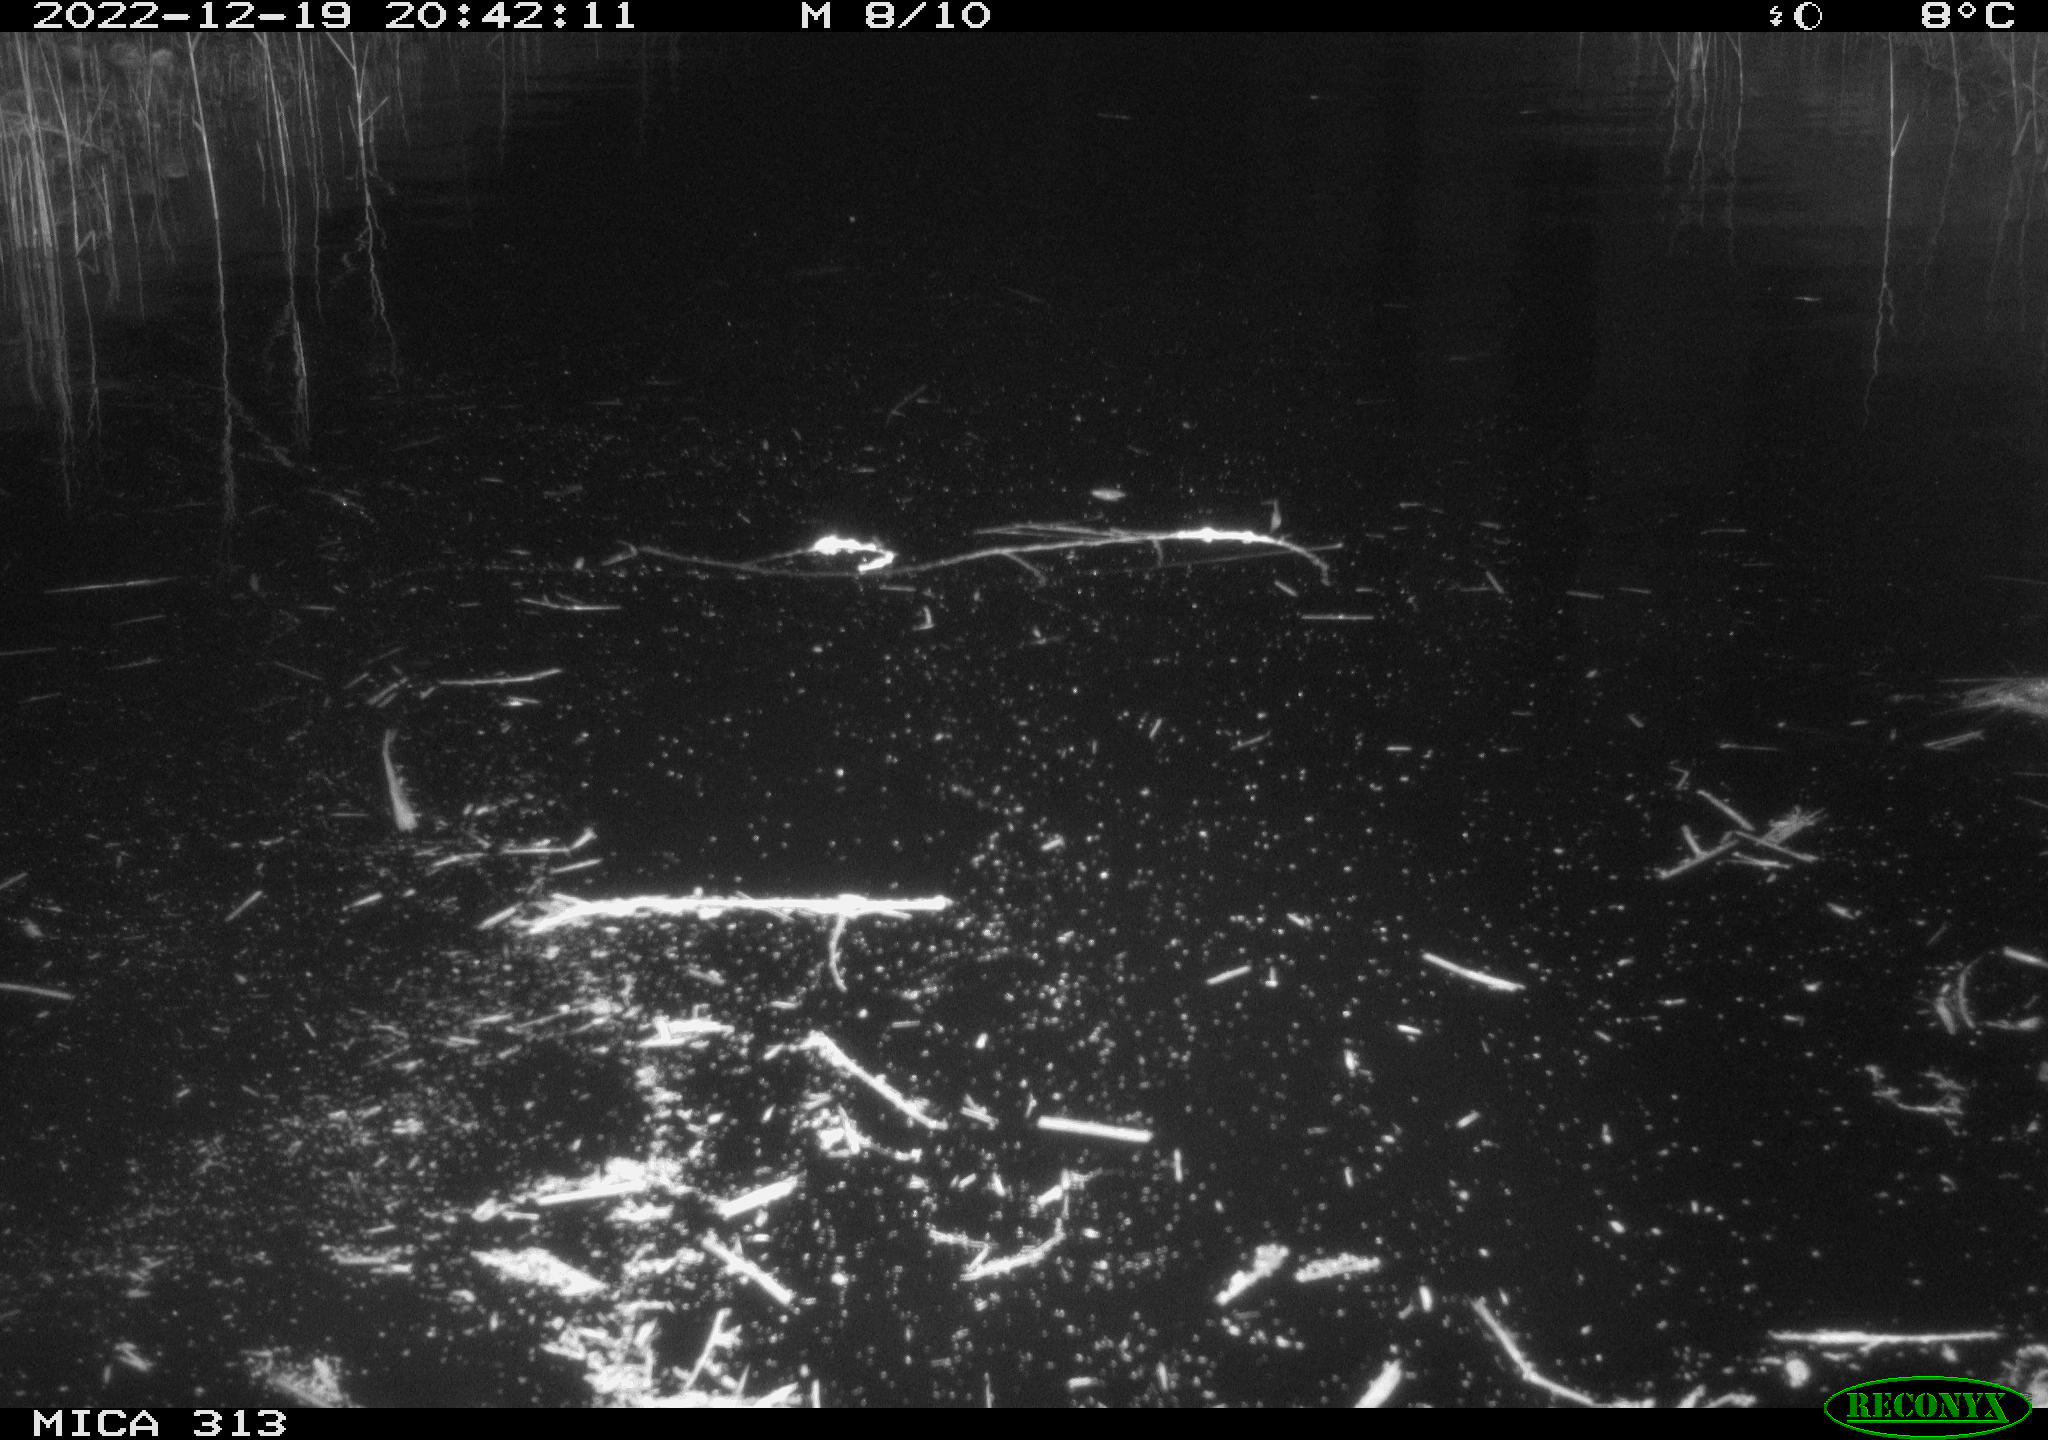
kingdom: Animalia
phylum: Chordata
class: Aves
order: Gruiformes
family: Rallidae
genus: Gallinula
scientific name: Gallinula chloropus
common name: Common moorhen
